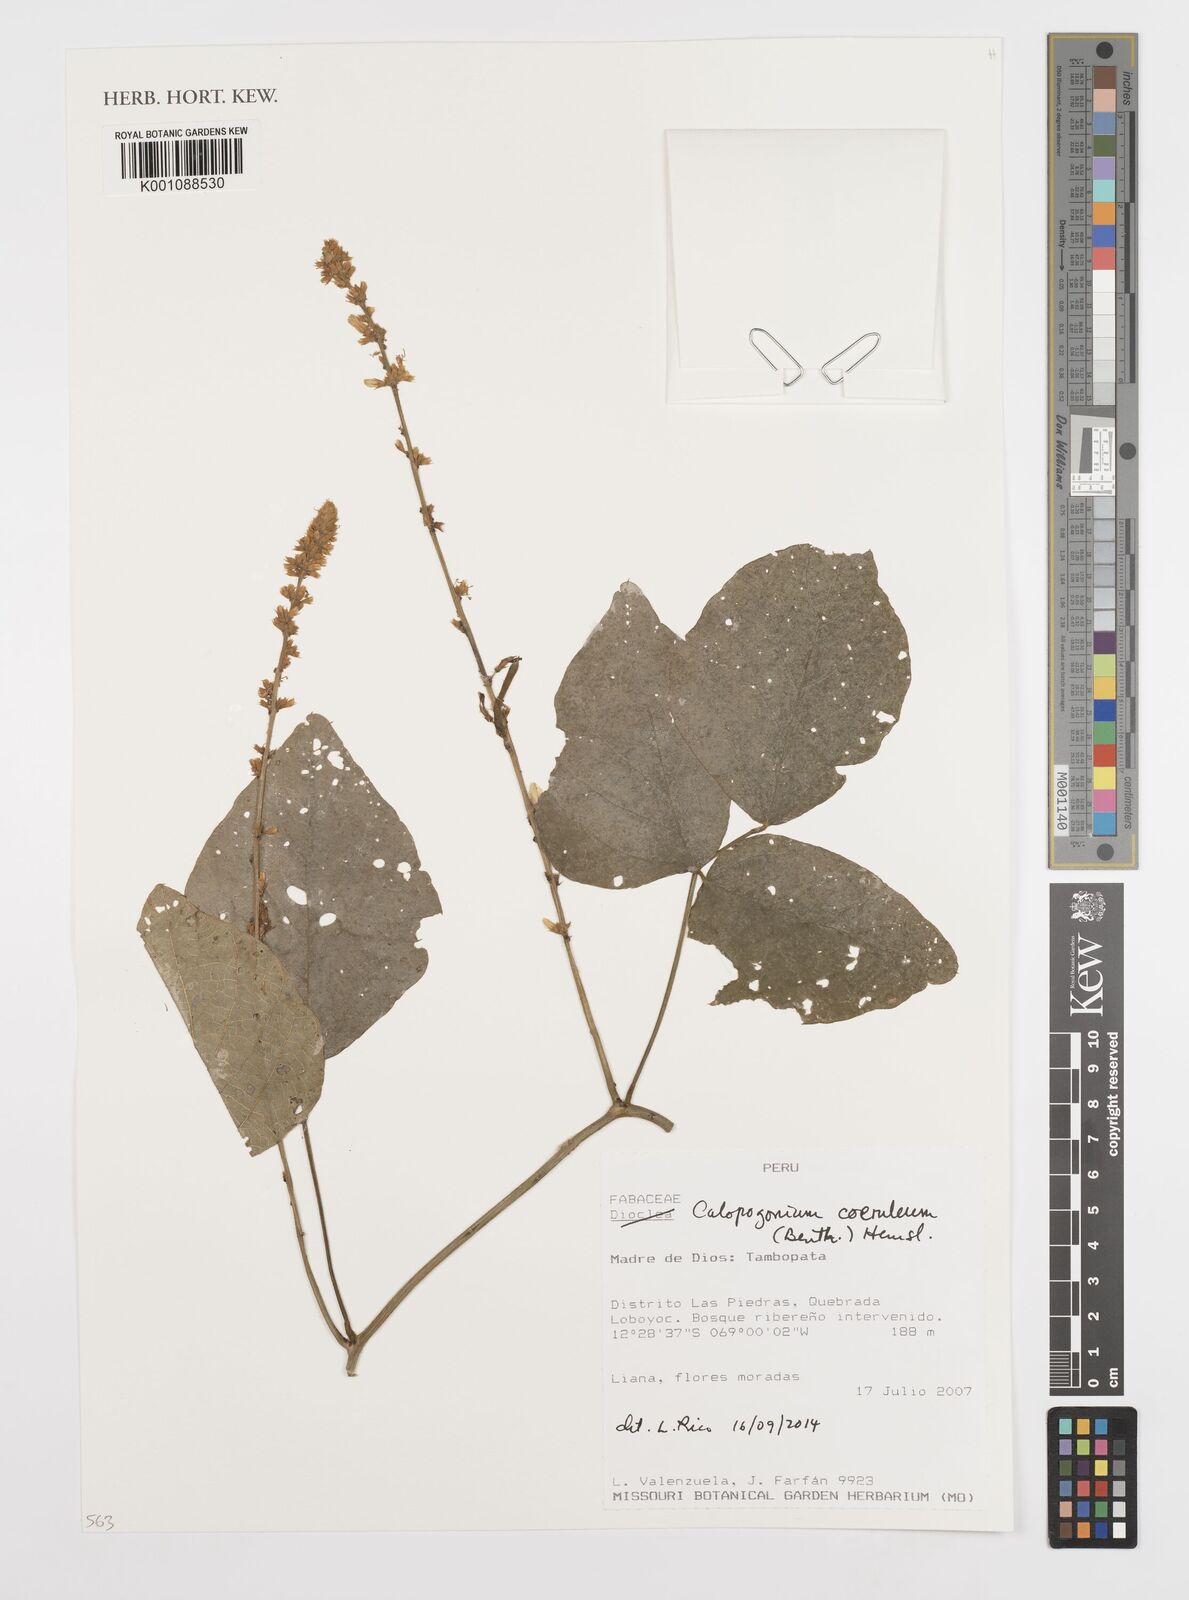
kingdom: Plantae
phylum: Tracheophyta
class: Magnoliopsida
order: Fabales
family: Fabaceae
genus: Calopogonium
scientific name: Calopogonium
